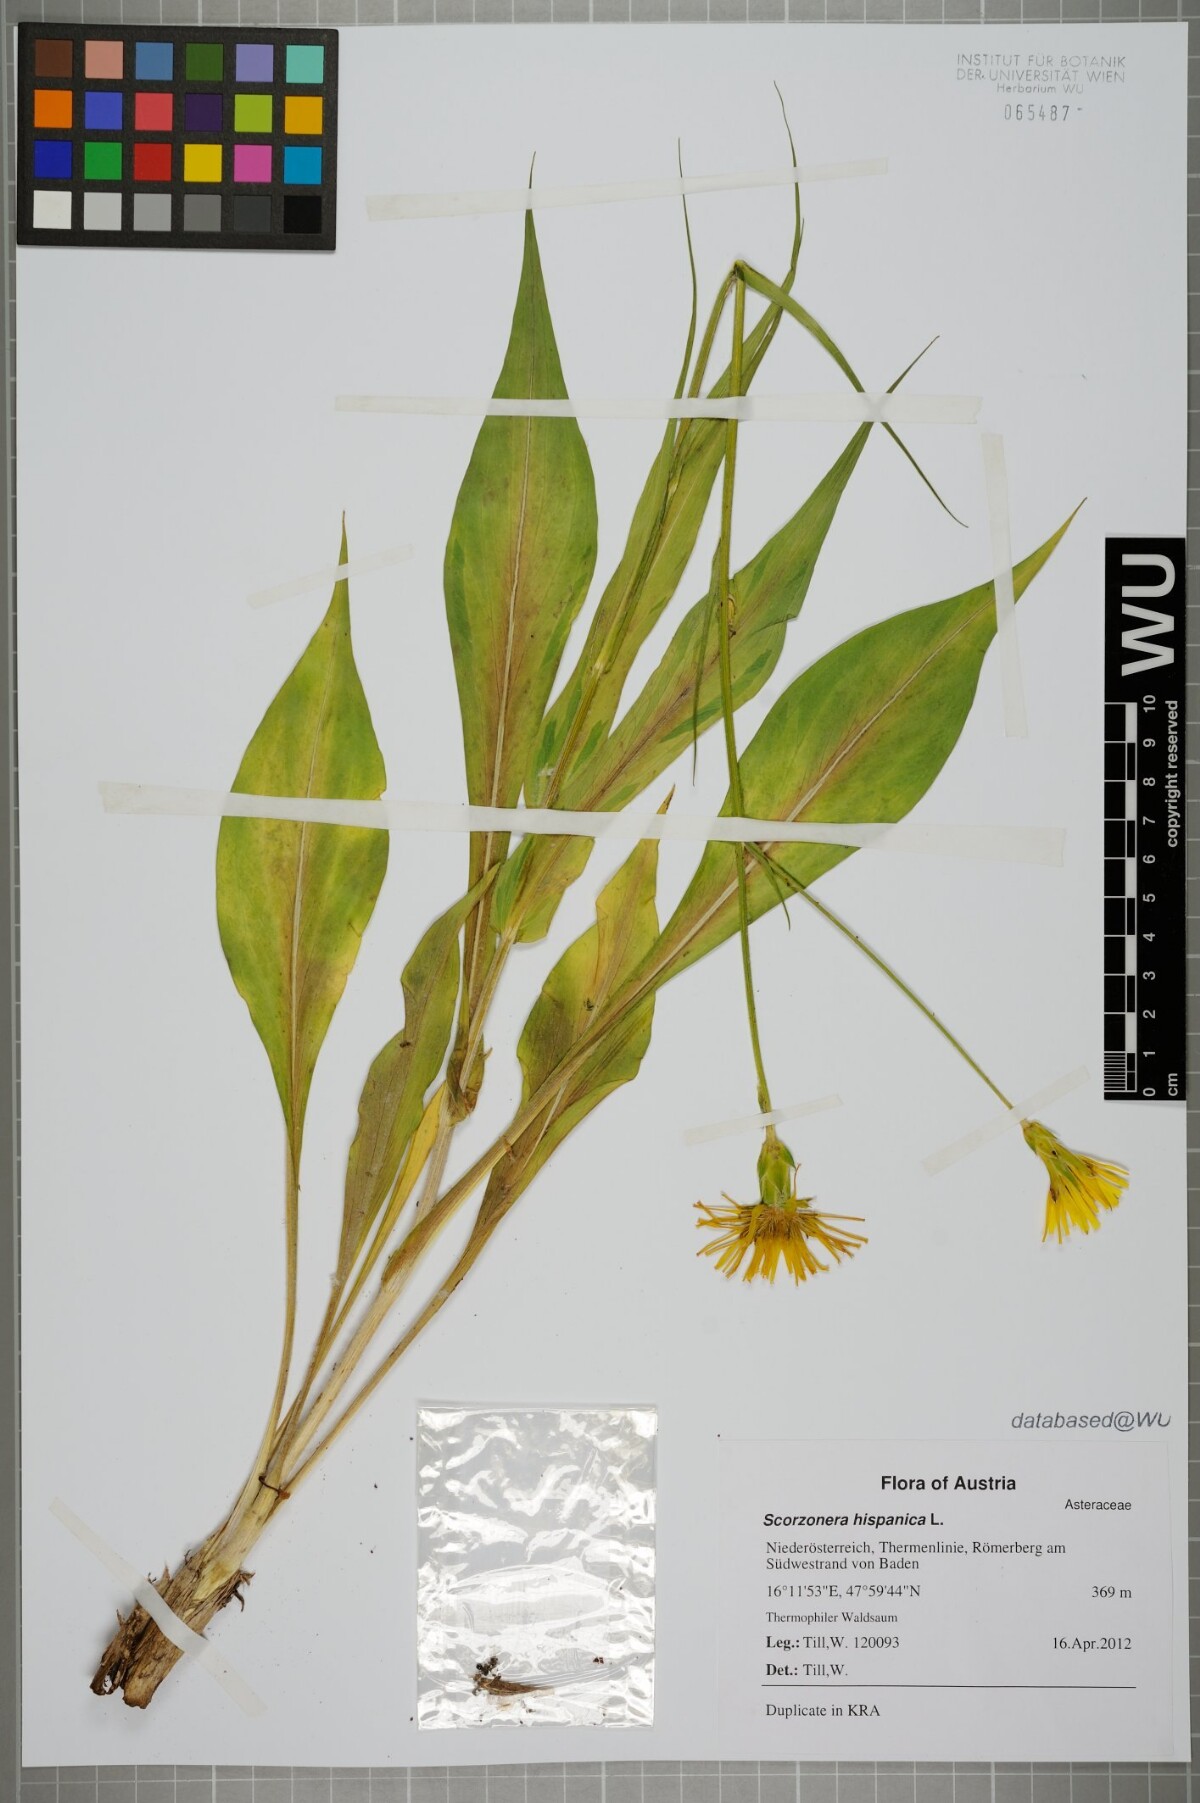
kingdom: Plantae
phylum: Tracheophyta
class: Magnoliopsida
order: Asterales
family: Asteraceae
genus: Pseudopodospermum
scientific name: Pseudopodospermum hispanicum
